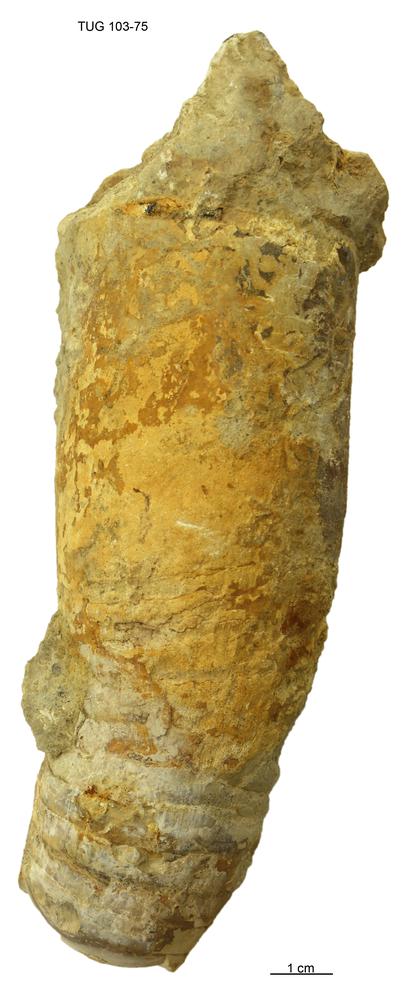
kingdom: Animalia
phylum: Mollusca
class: Cephalopoda
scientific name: Cephalopoda
